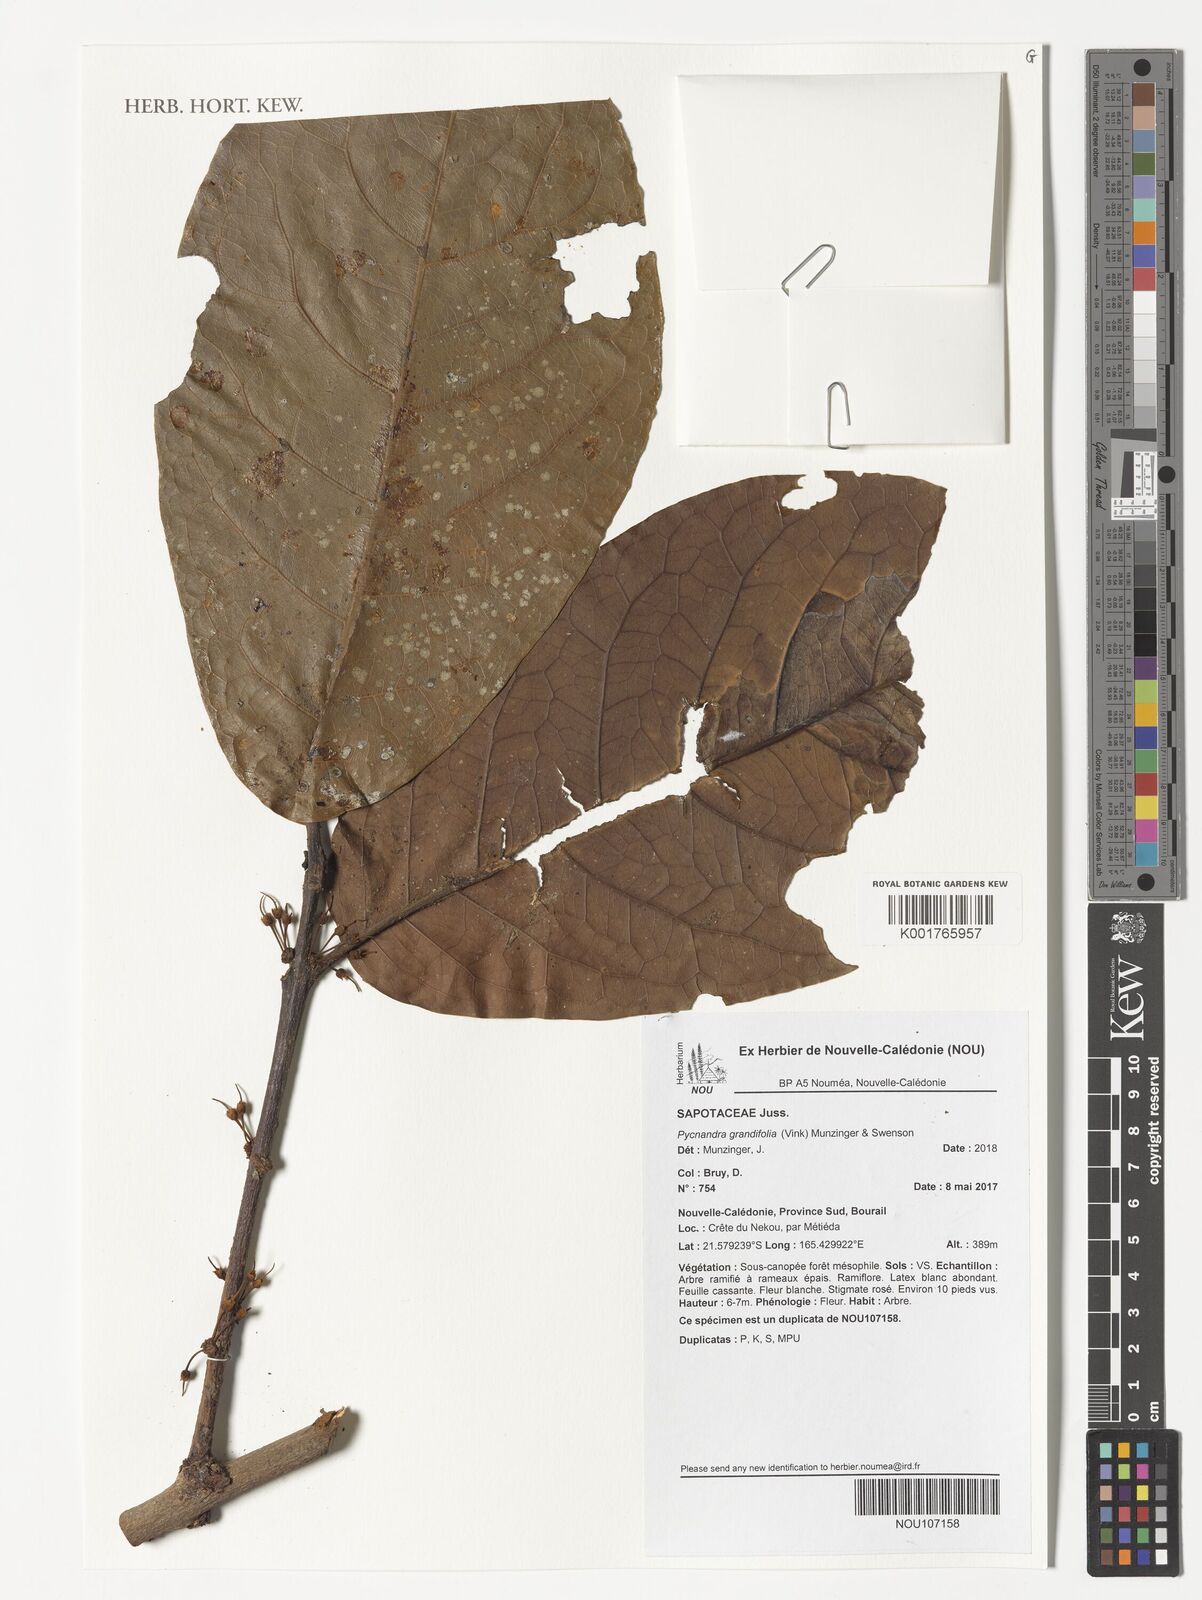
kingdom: Plantae
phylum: Tracheophyta
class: Magnoliopsida
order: Ericales
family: Sapotaceae
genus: Pycnandra
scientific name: Pycnandra grandifolia
